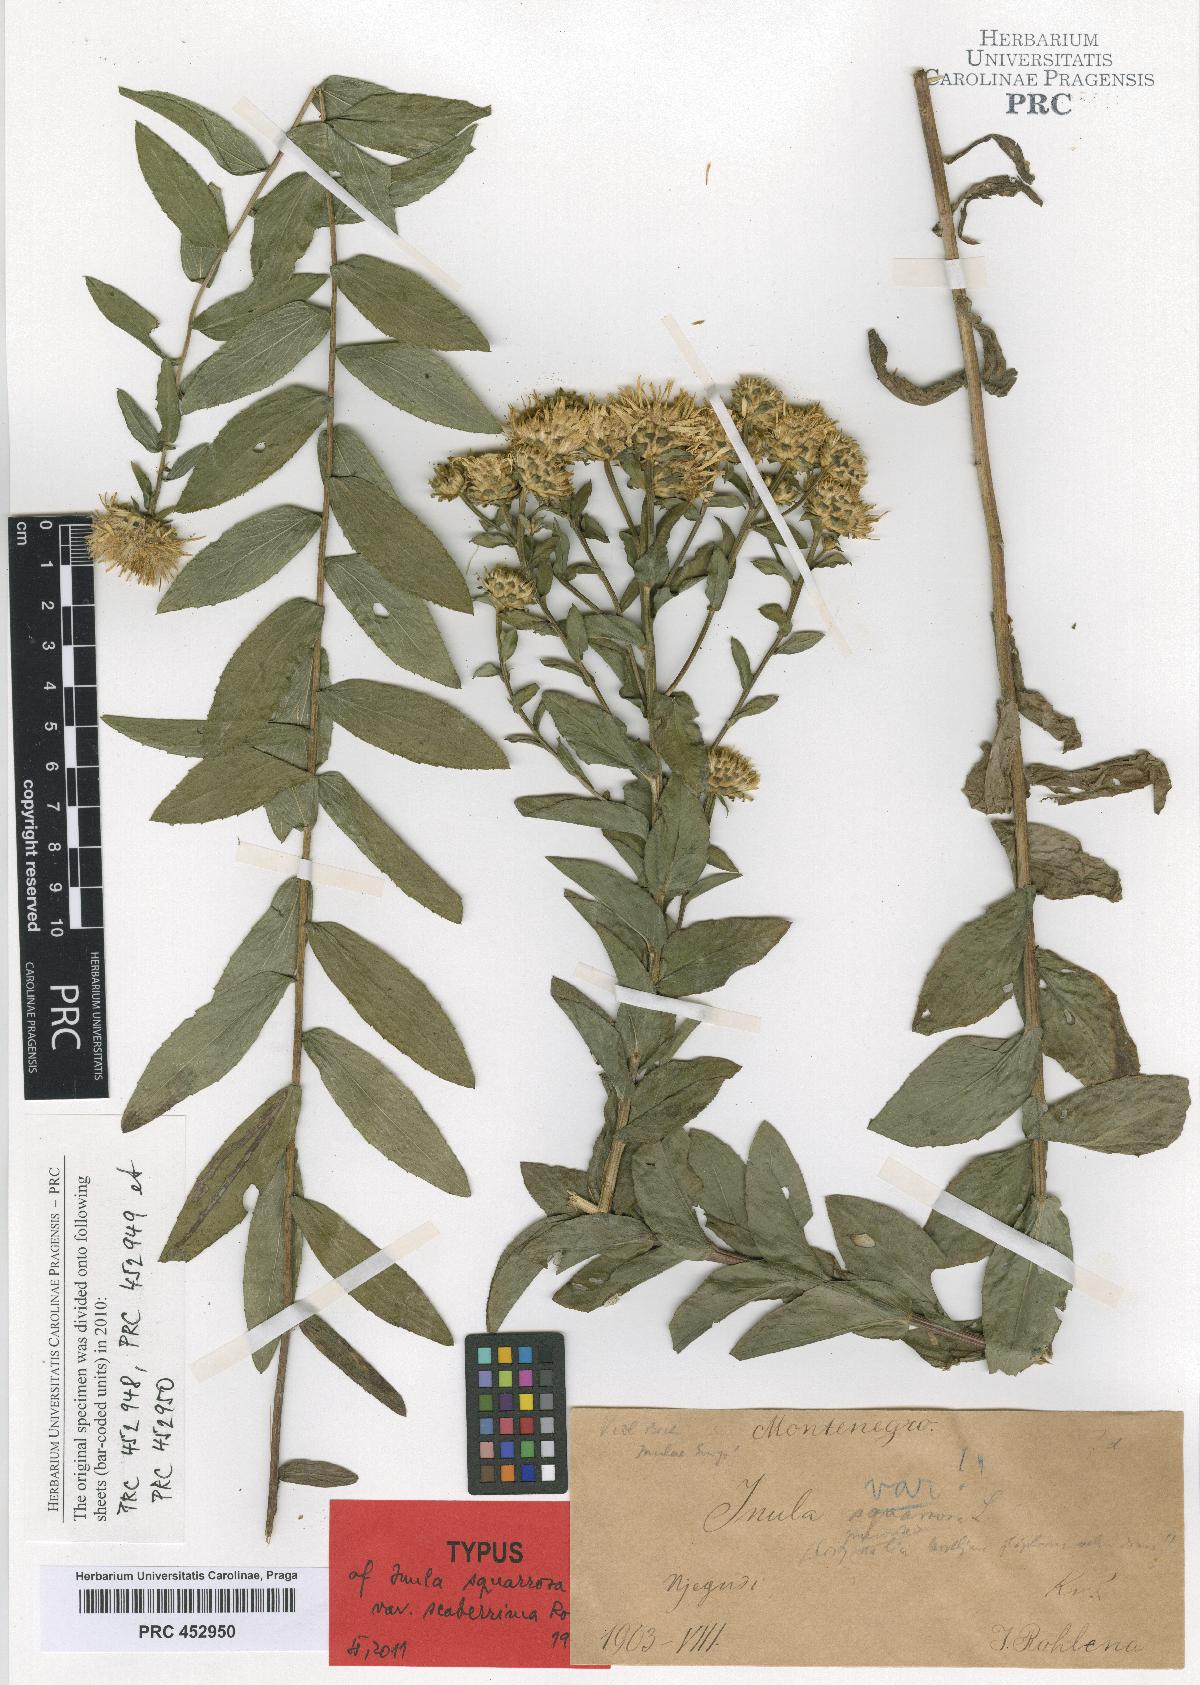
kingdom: Plantae
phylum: Tracheophyta
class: Magnoliopsida
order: Asterales
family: Asteraceae
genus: Pentanema
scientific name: Pentanema spiraeifolium
